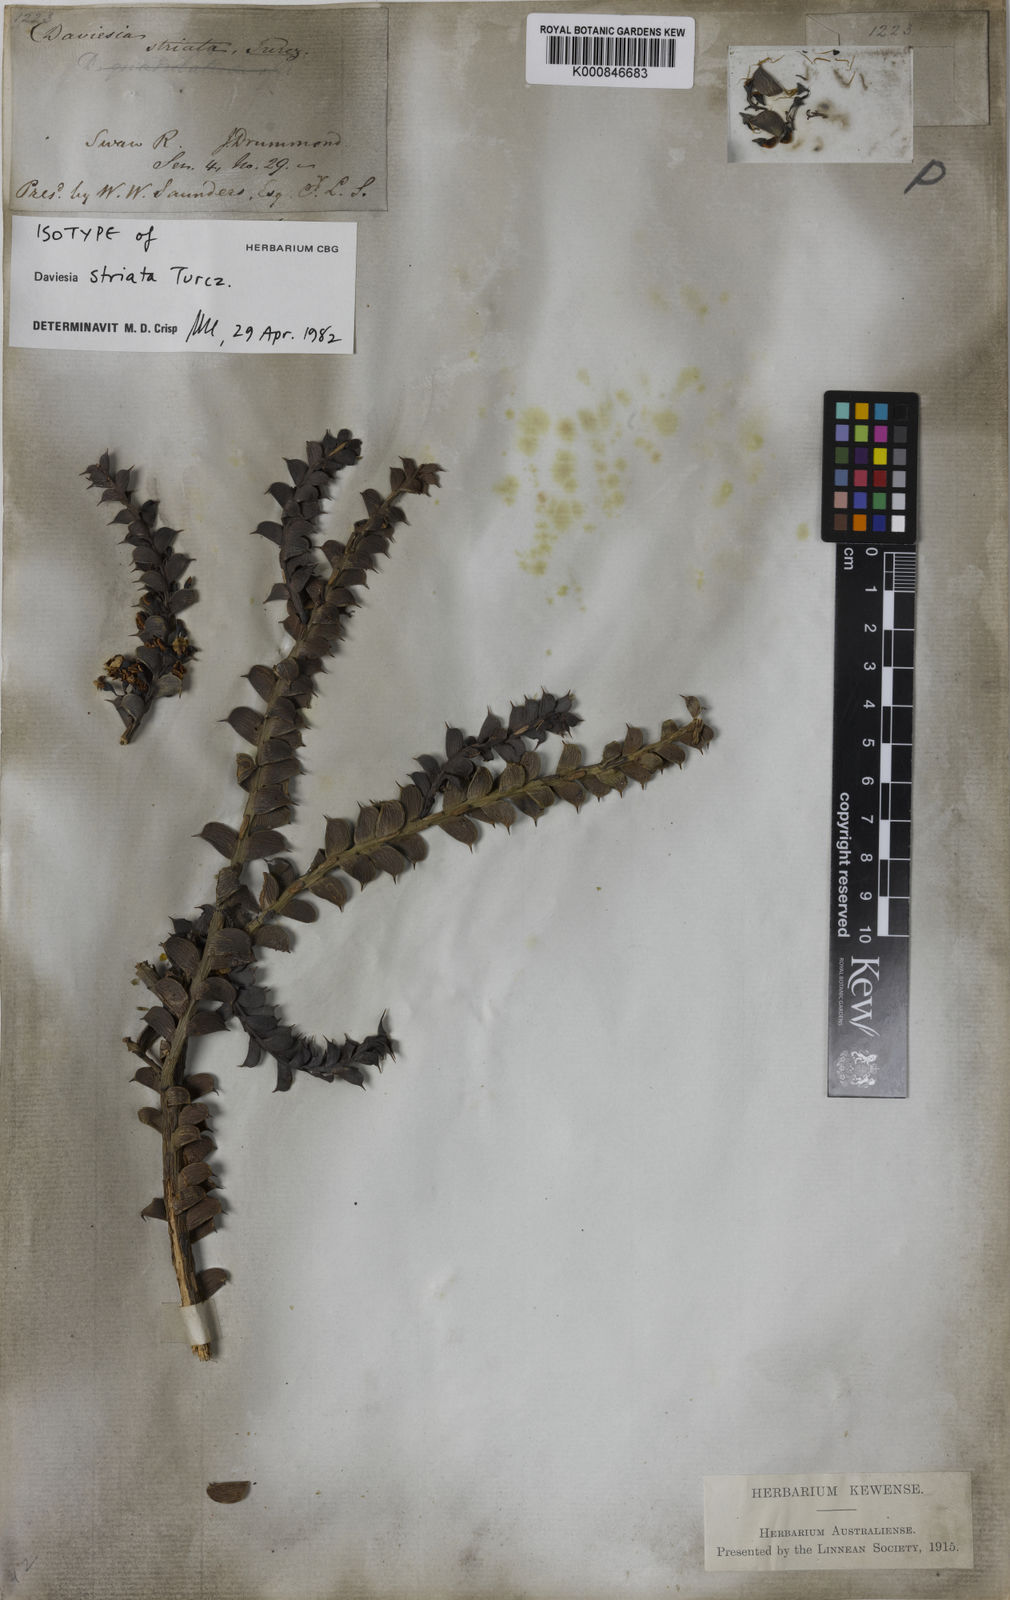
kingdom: Plantae
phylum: Tracheophyta
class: Magnoliopsida
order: Fabales
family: Fabaceae
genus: Daviesia
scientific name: Daviesia striata
